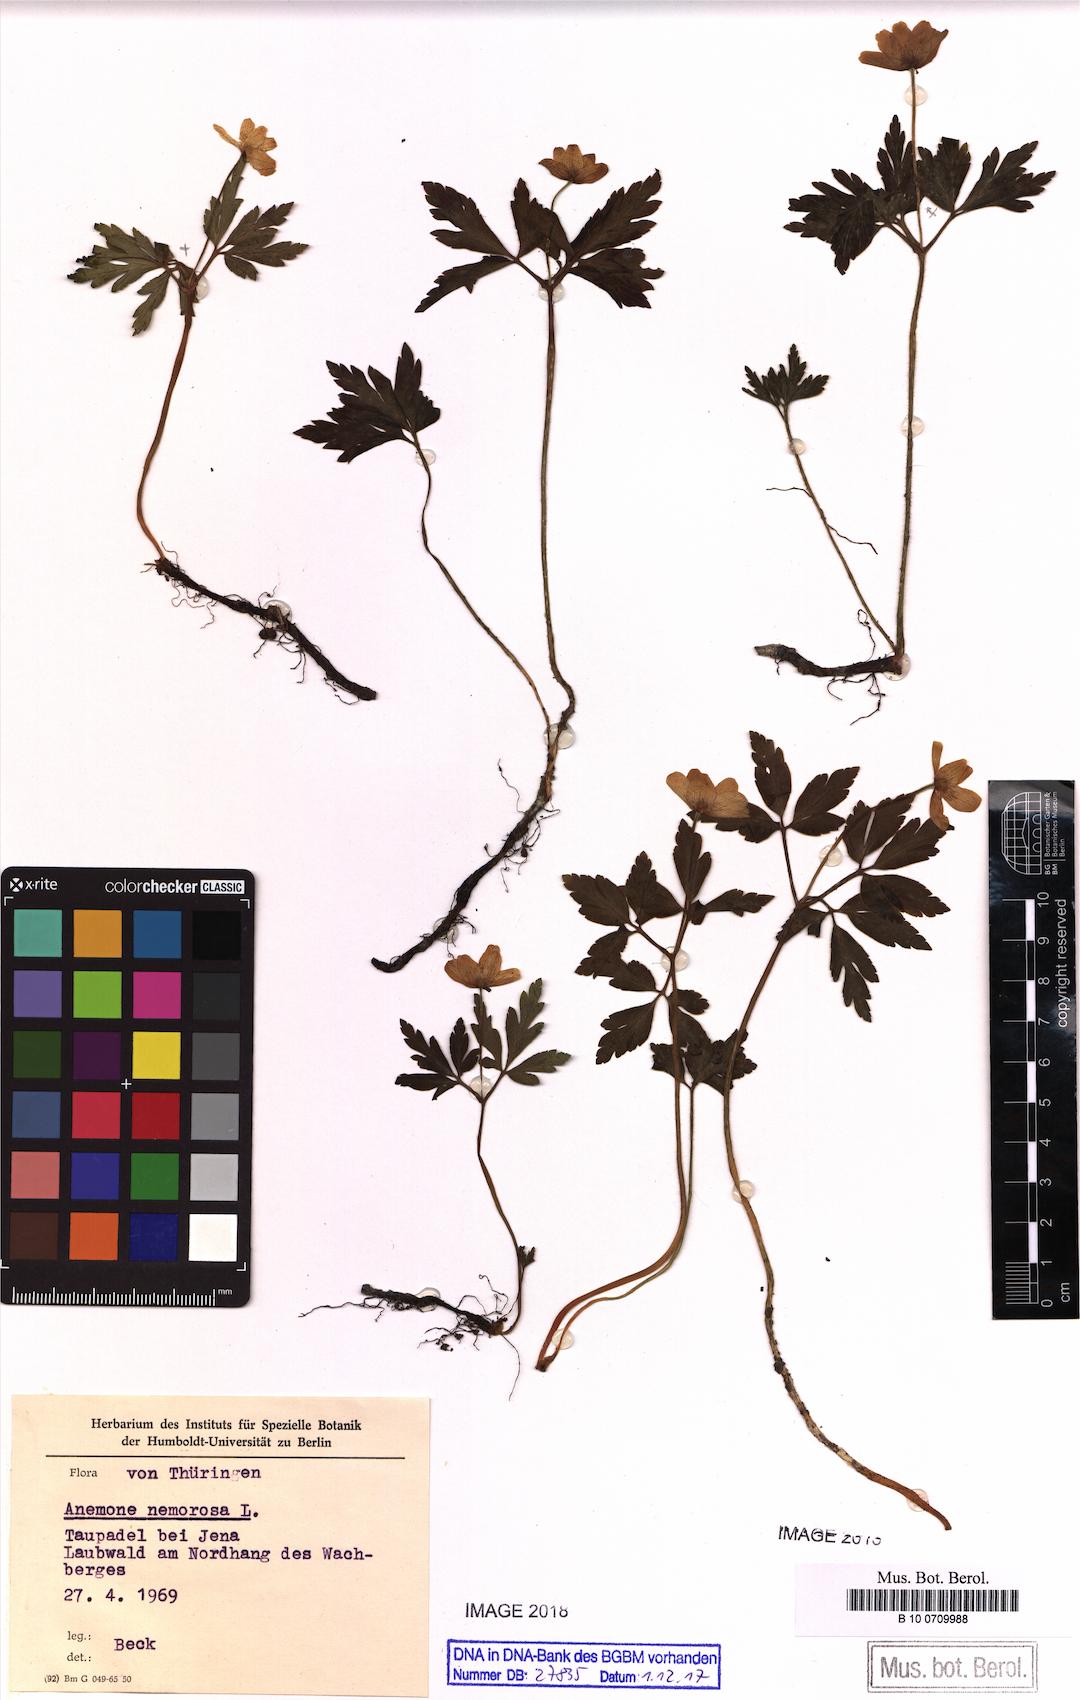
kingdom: Plantae
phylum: Tracheophyta
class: Magnoliopsida
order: Ranunculales
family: Ranunculaceae
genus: Anemone
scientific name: Anemone nemorosa
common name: Wood anemone
